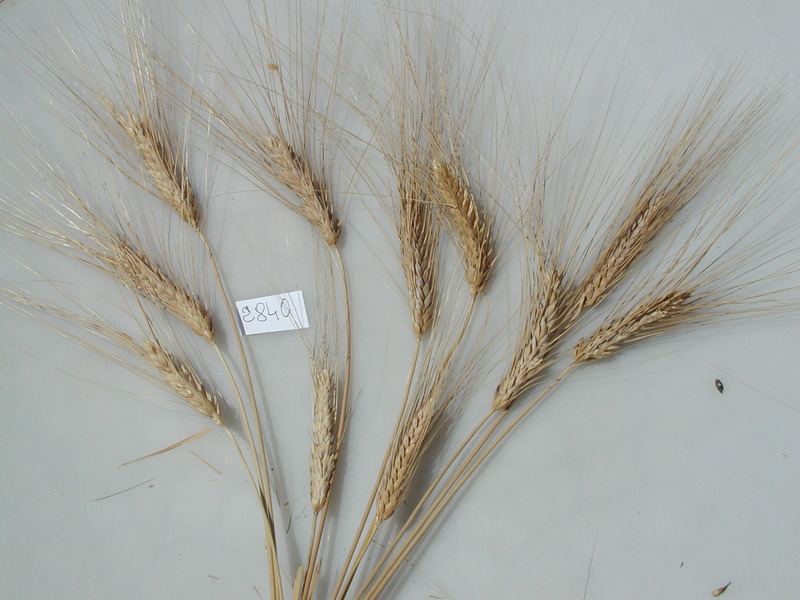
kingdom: Plantae
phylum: Tracheophyta
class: Liliopsida
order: Poales
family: Poaceae
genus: Triticum
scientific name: Triticum turgidum
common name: Wheat
